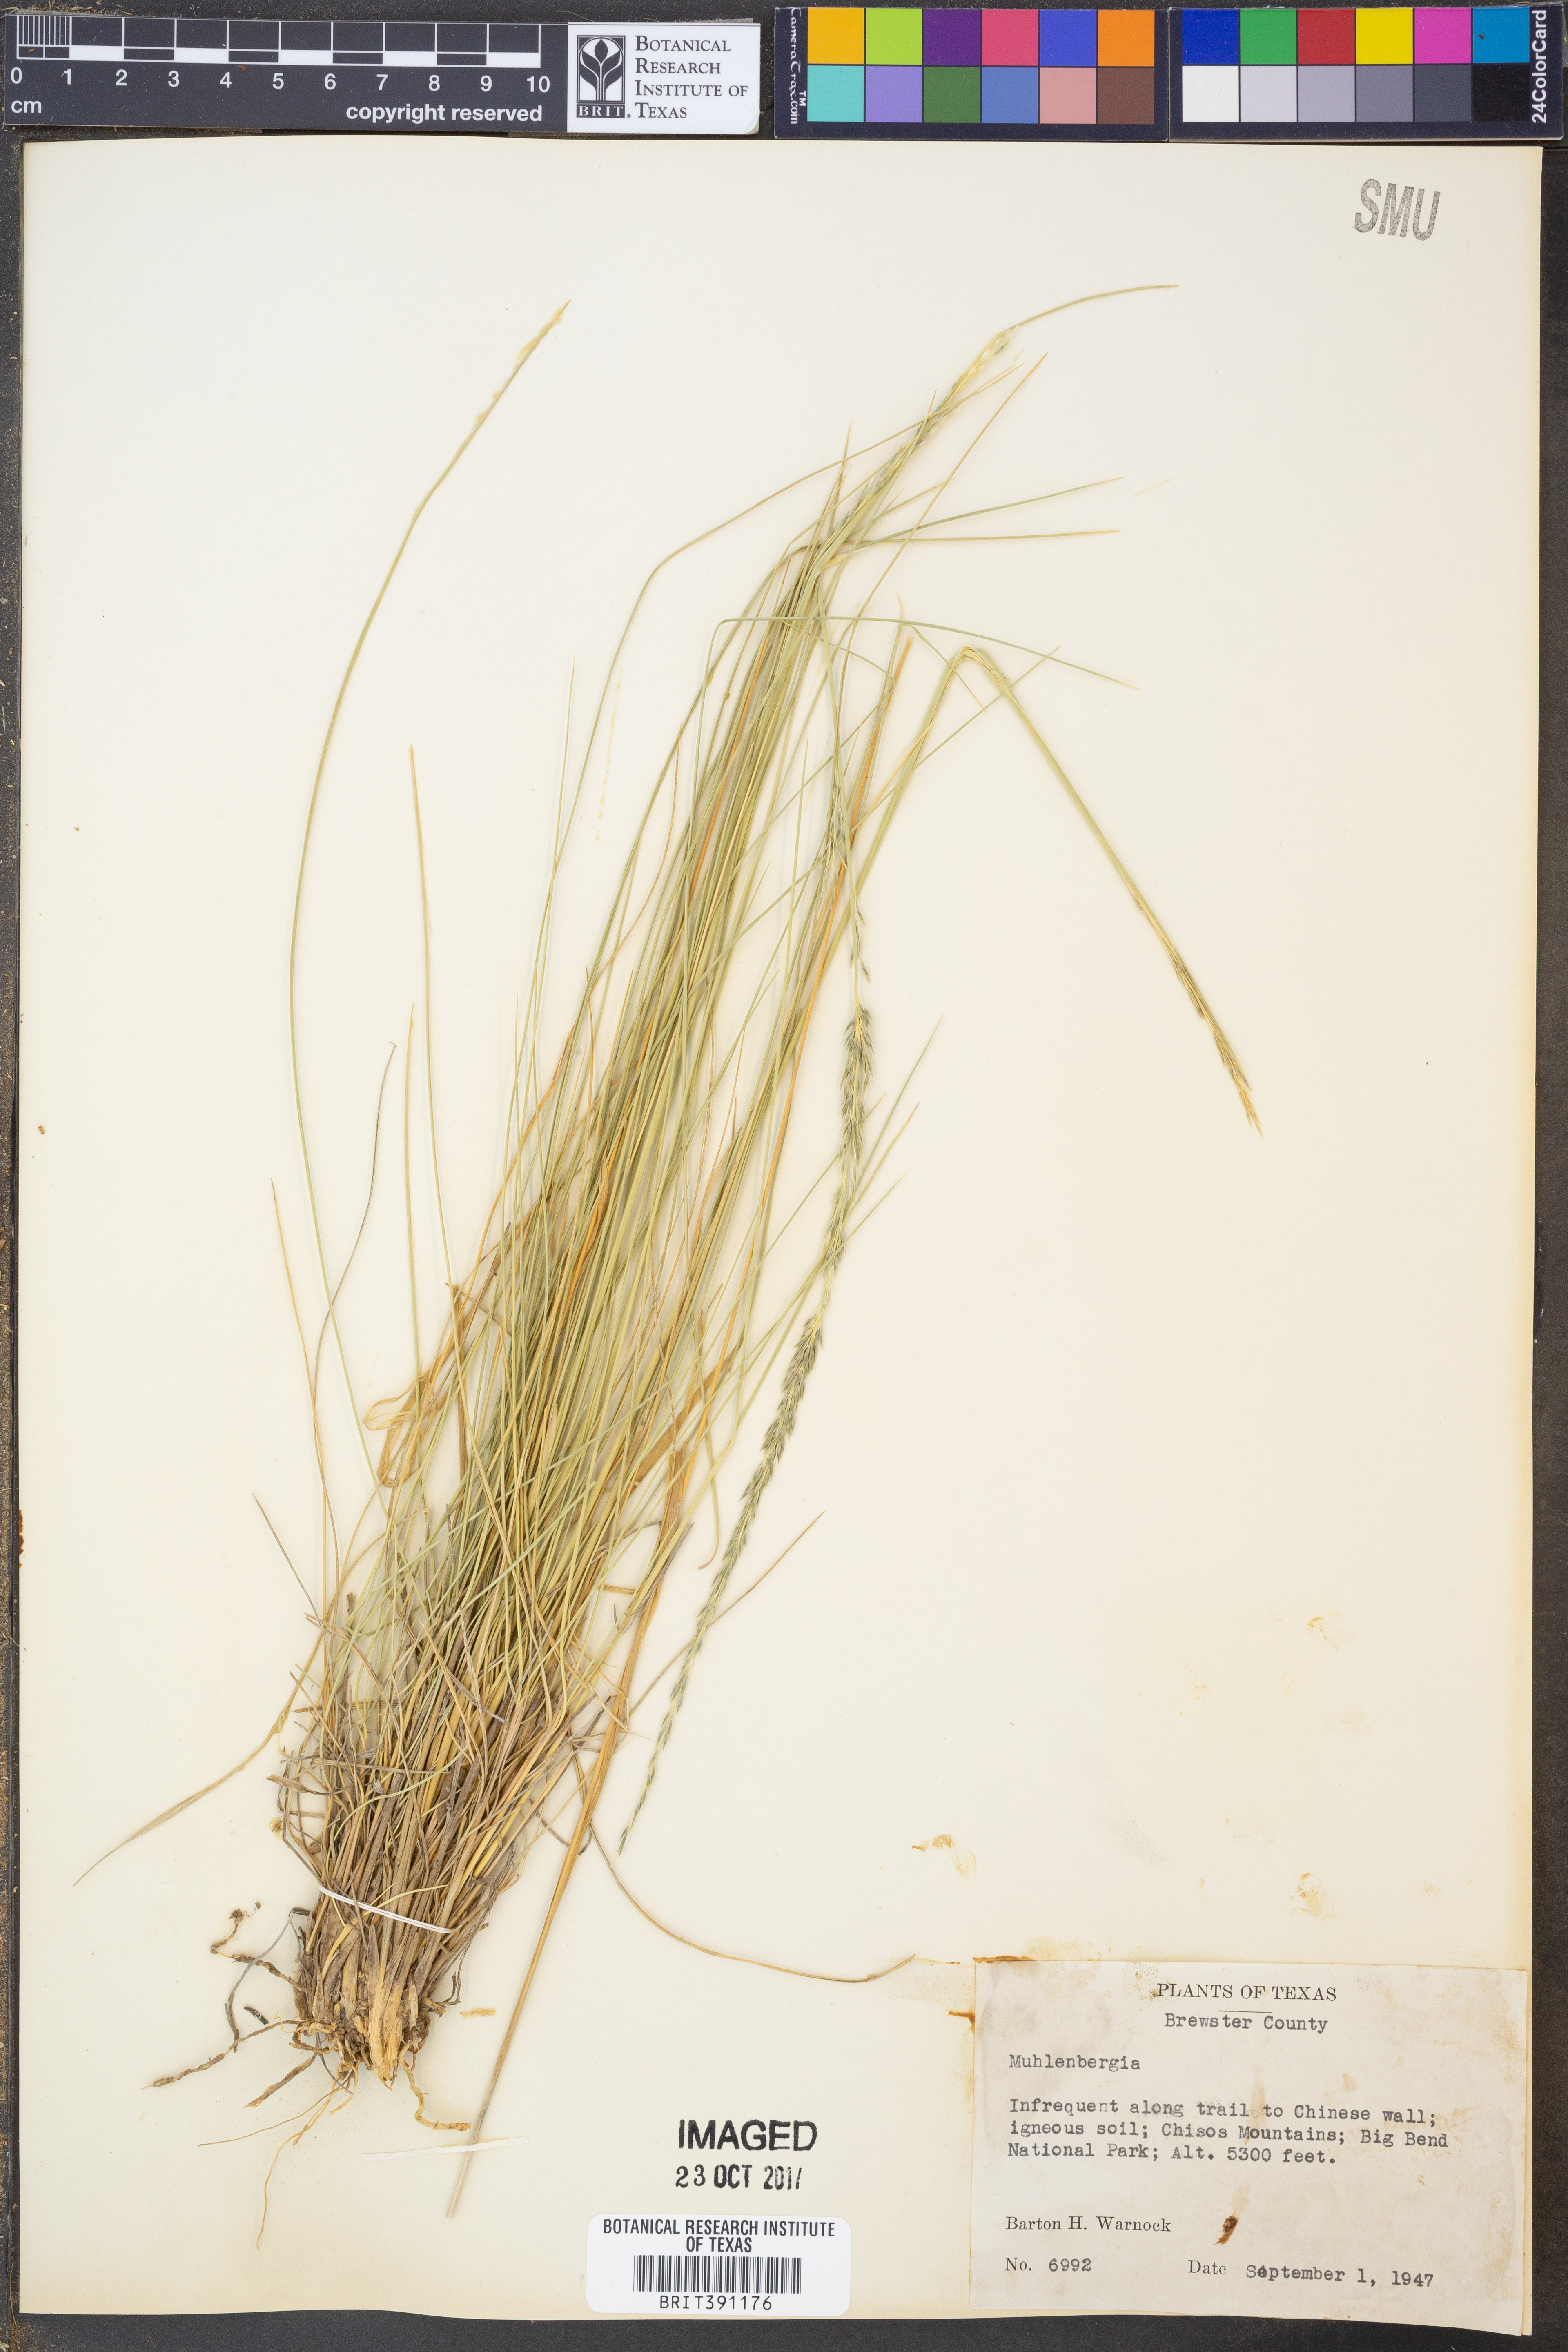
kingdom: Plantae
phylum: Tracheophyta
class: Liliopsida
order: Poales
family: Poaceae
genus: Muhlenbergia
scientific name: Muhlenbergia
